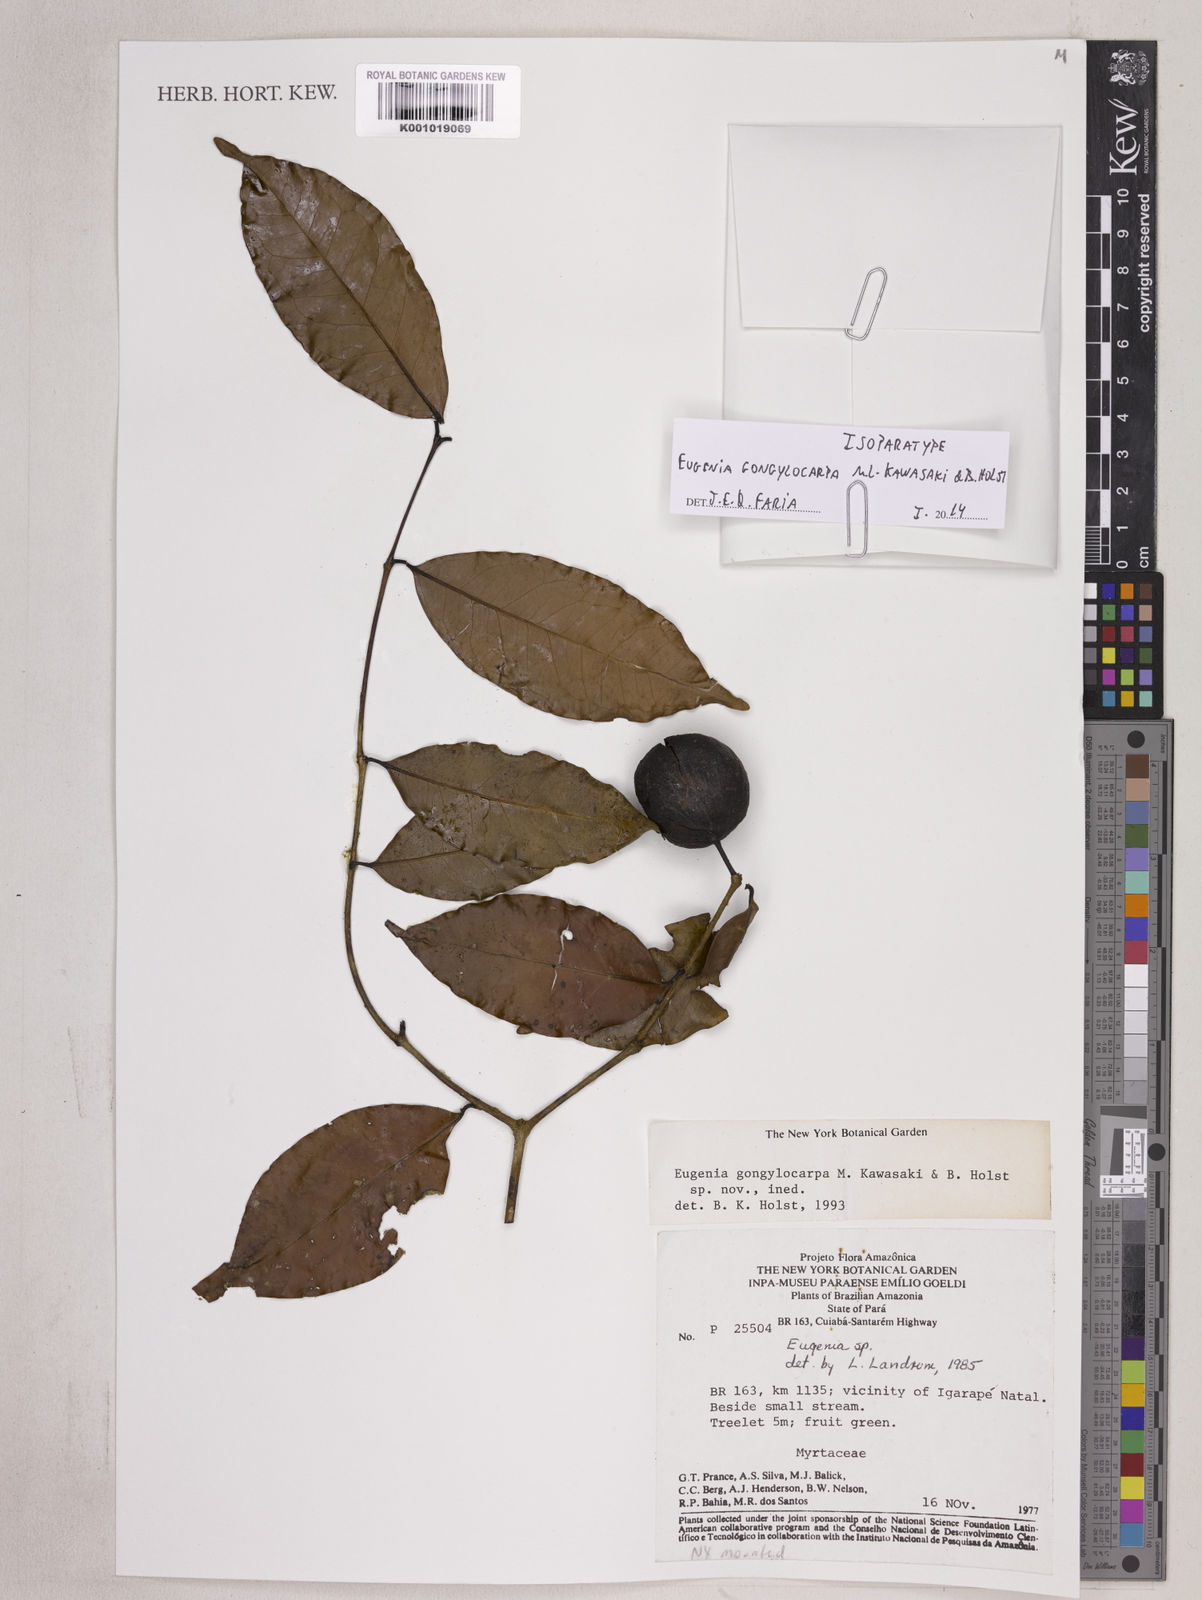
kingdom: Plantae
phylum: Tracheophyta
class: Magnoliopsida
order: Myrtales
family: Myrtaceae
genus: Eugenia
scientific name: Eugenia gongylocarpa
